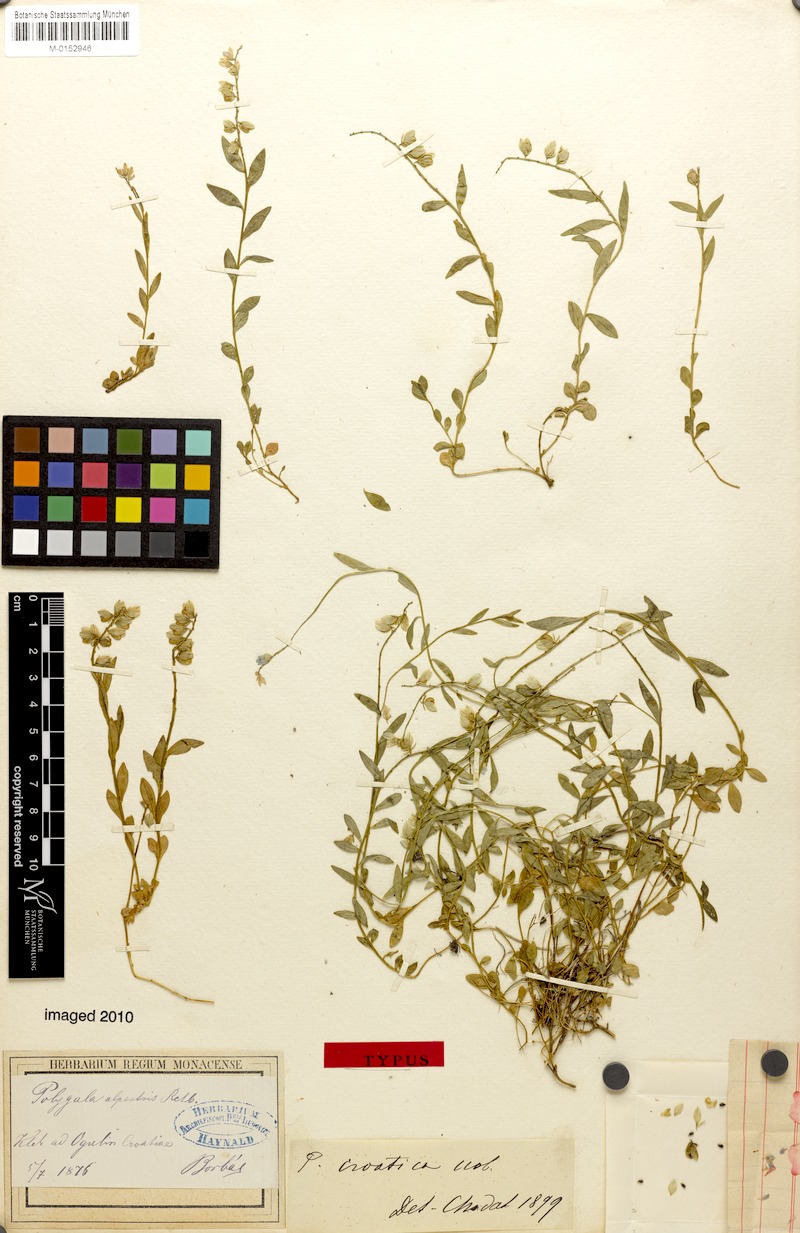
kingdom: Plantae
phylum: Tracheophyta
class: Magnoliopsida
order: Fabales
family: Polygalaceae
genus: Polygala
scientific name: Polygala alpestris
